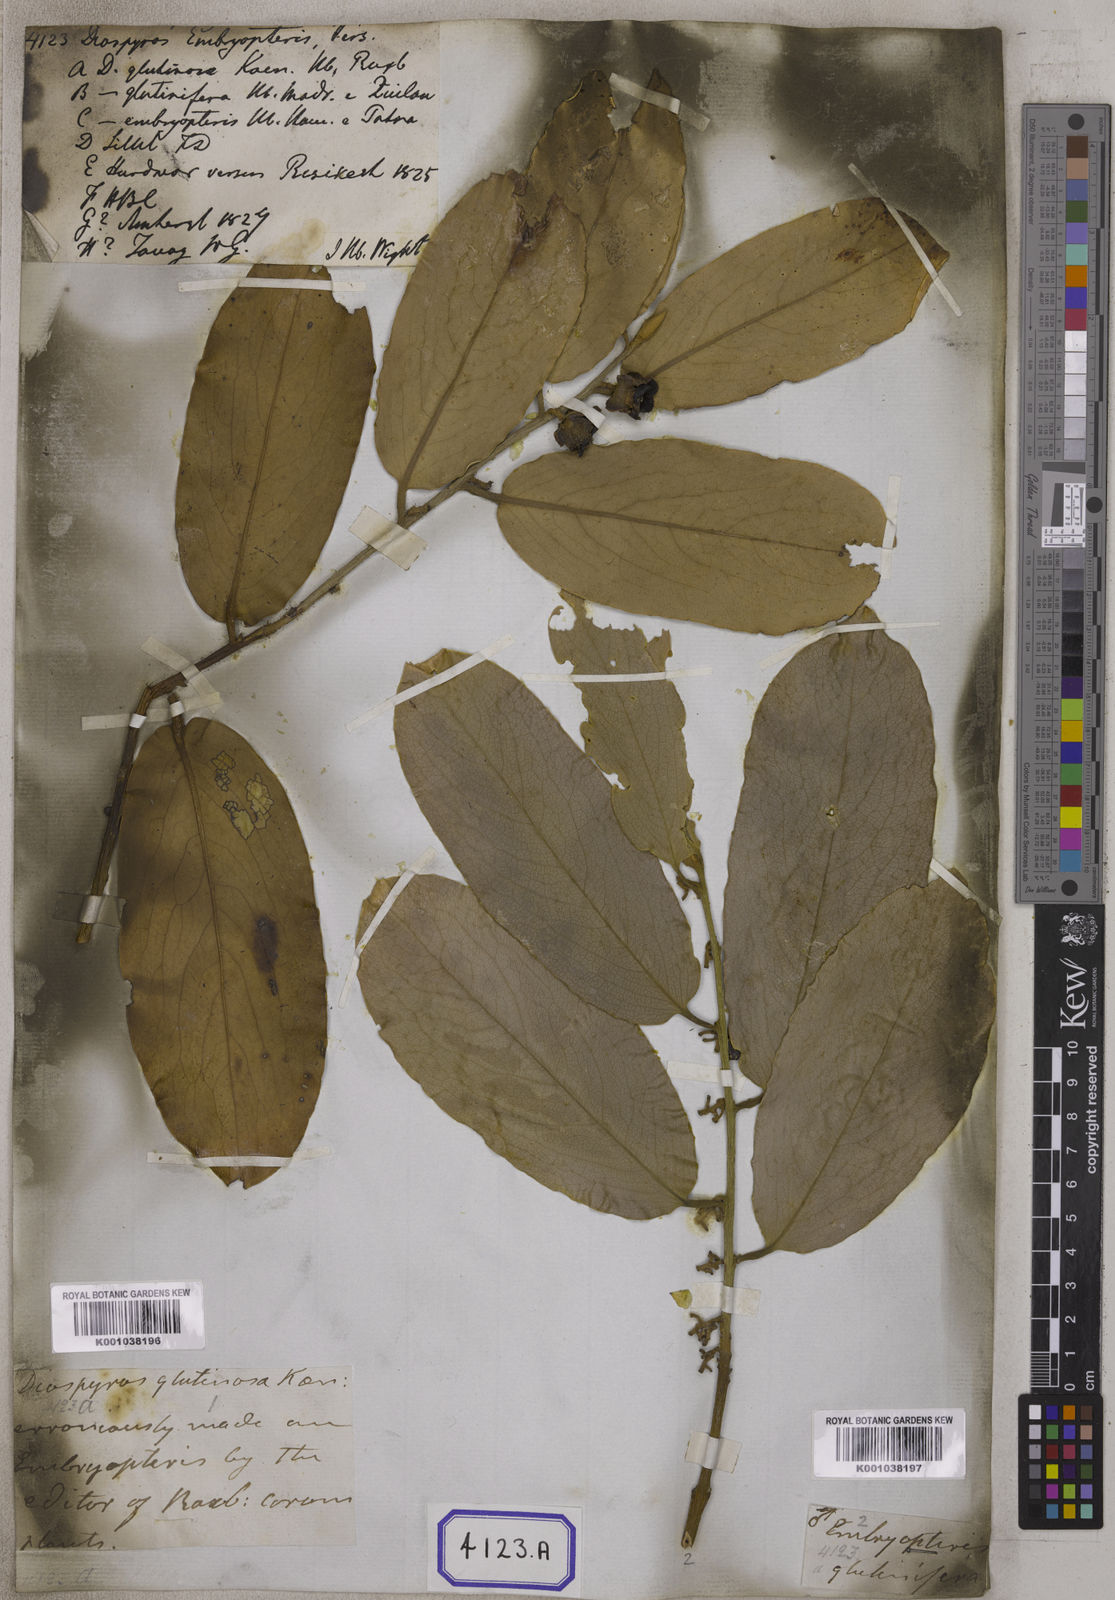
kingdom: Plantae
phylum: Tracheophyta
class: Magnoliopsida
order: Ericales
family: Ebenaceae
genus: Diospyros
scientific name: Diospyros malabarica
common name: Mountain ebony
